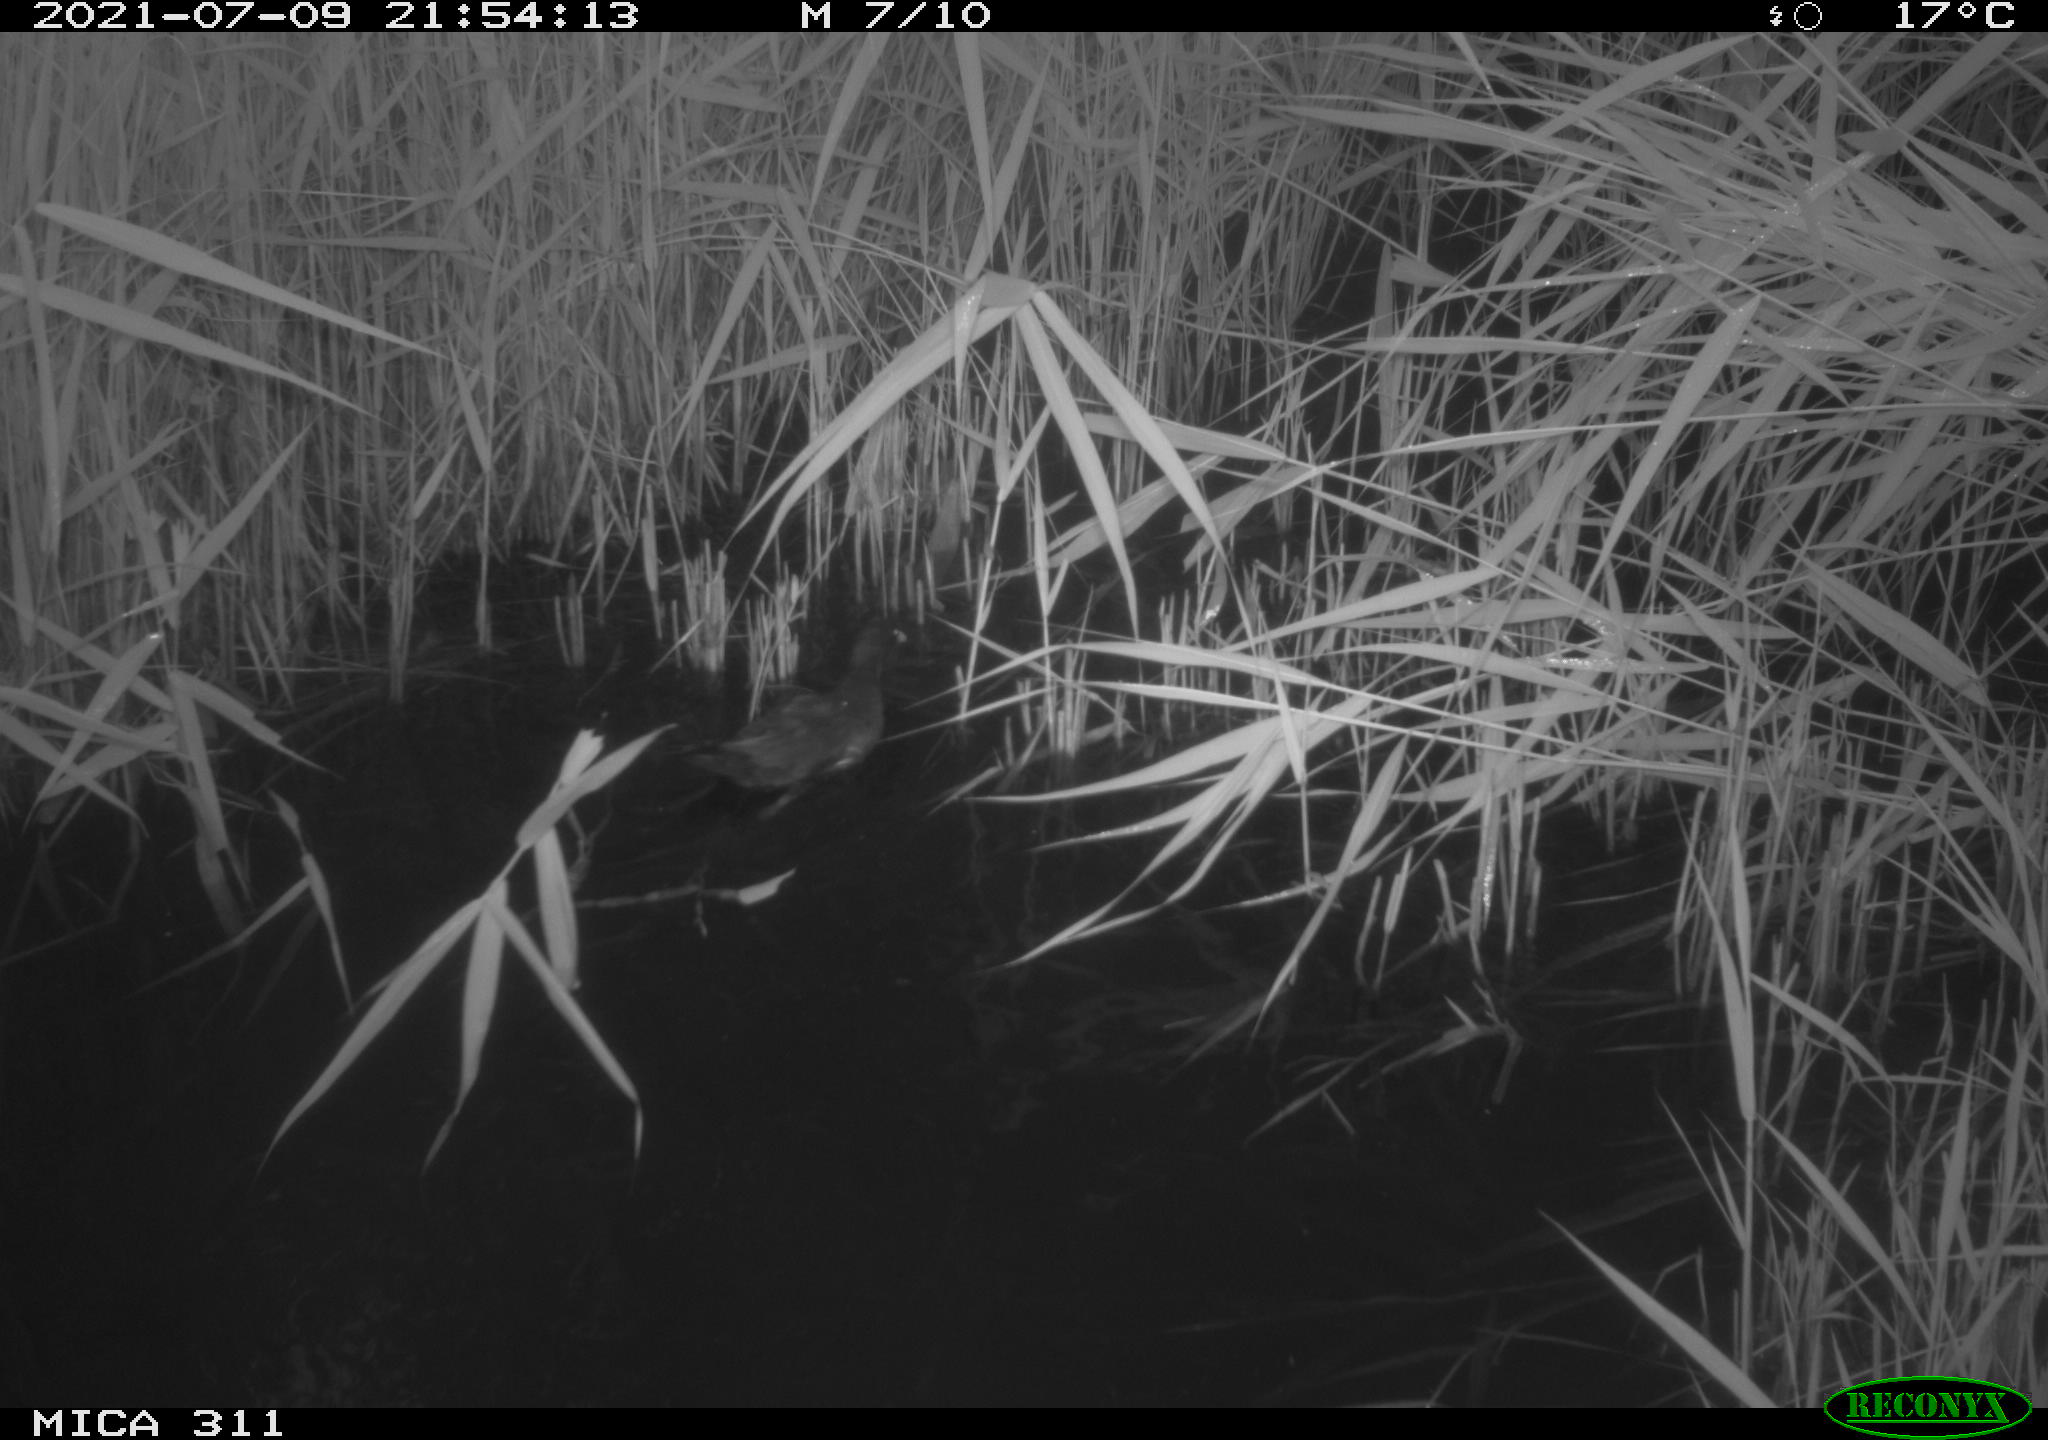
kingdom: Animalia
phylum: Chordata
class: Aves
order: Gruiformes
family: Rallidae
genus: Gallinula
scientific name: Gallinula chloropus
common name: Common moorhen
